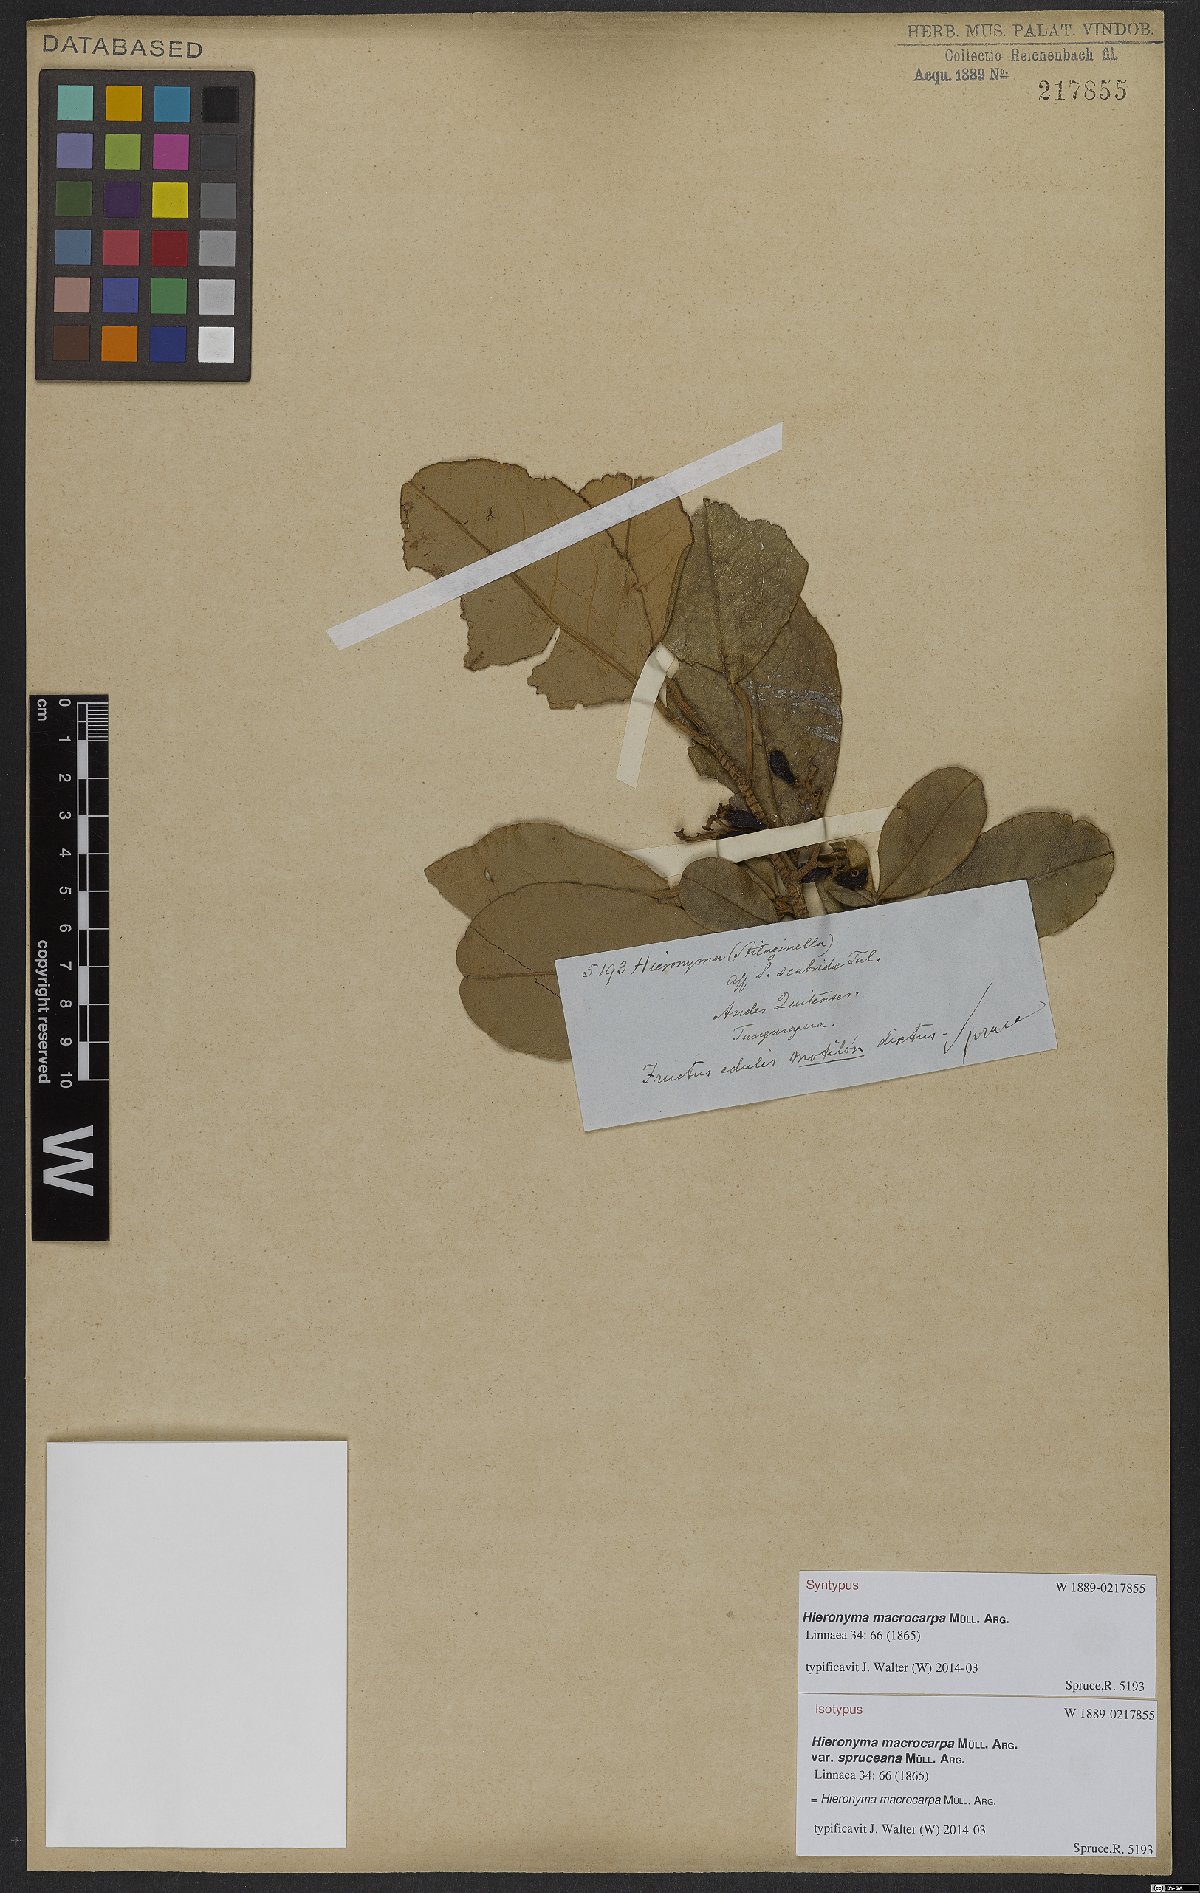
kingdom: Plantae
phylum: Tracheophyta
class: Magnoliopsida
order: Malpighiales
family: Phyllanthaceae
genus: Hieronyma
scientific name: Hieronyma macrocarpa
